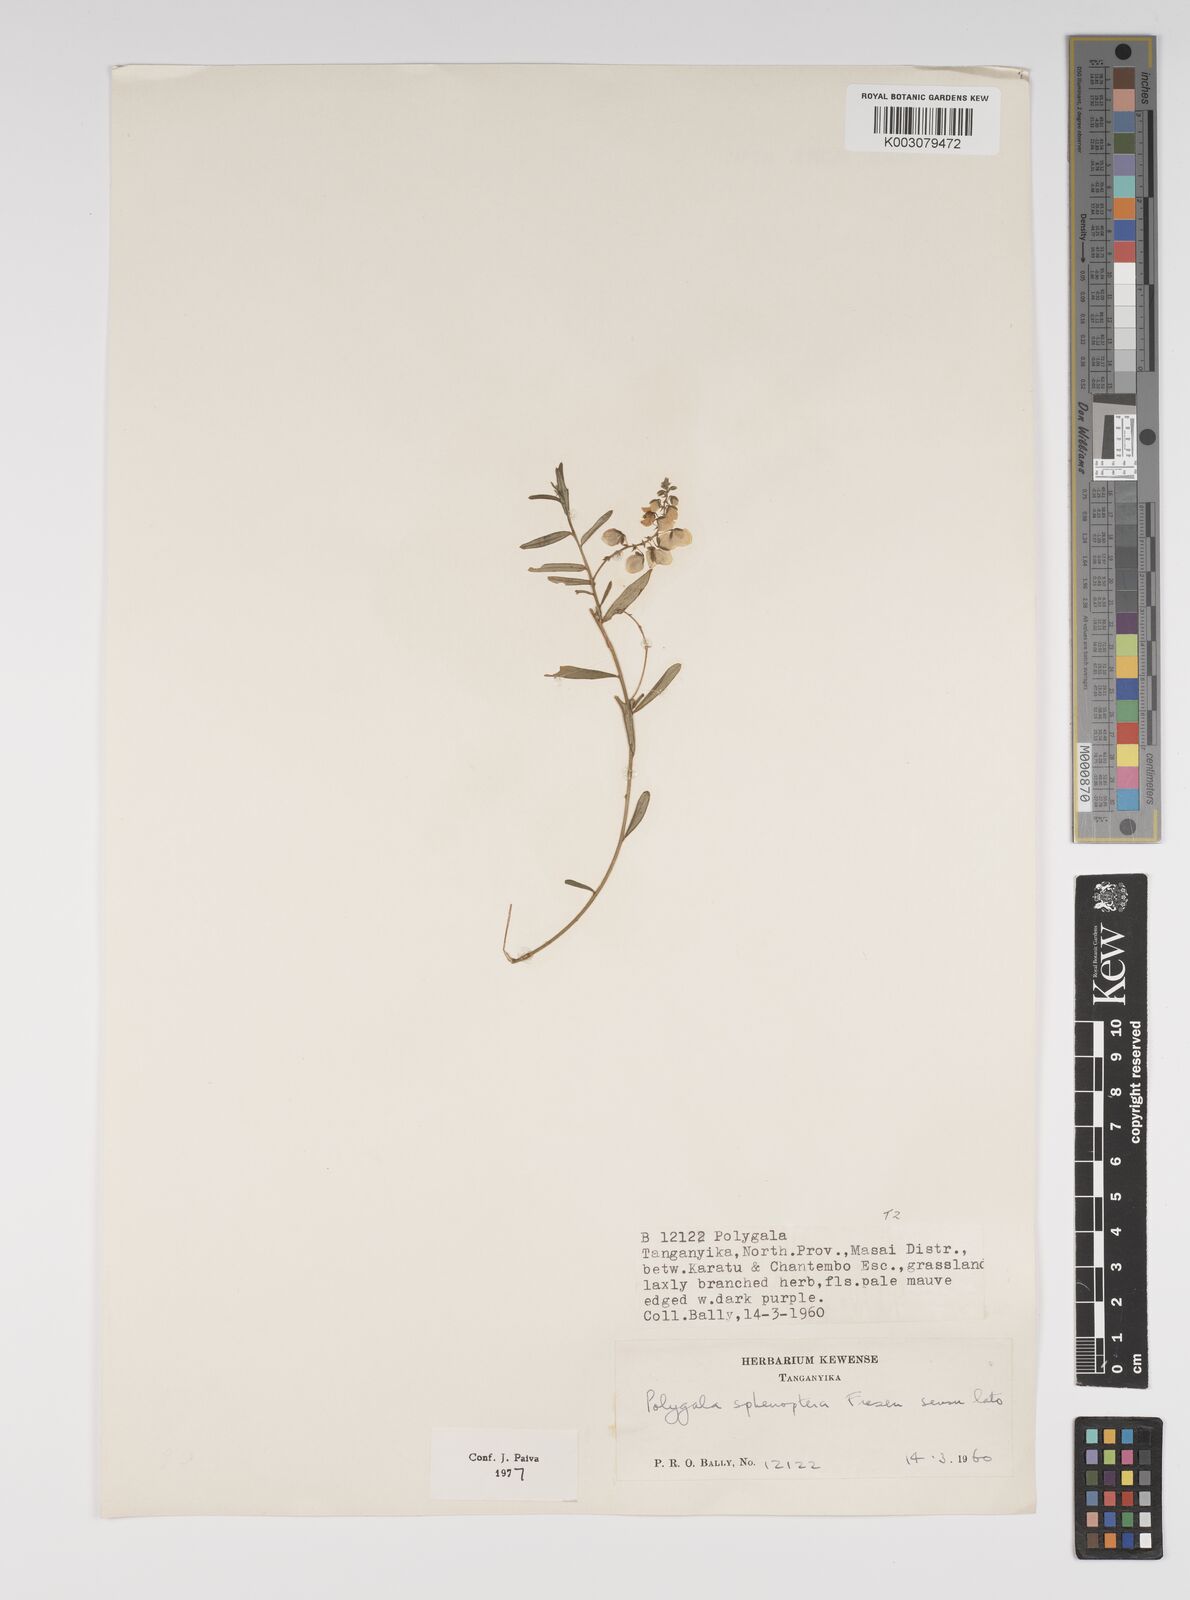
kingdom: Plantae
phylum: Tracheophyta
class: Magnoliopsida
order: Fabales
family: Polygalaceae
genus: Polygala
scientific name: Polygala sphenoptera
